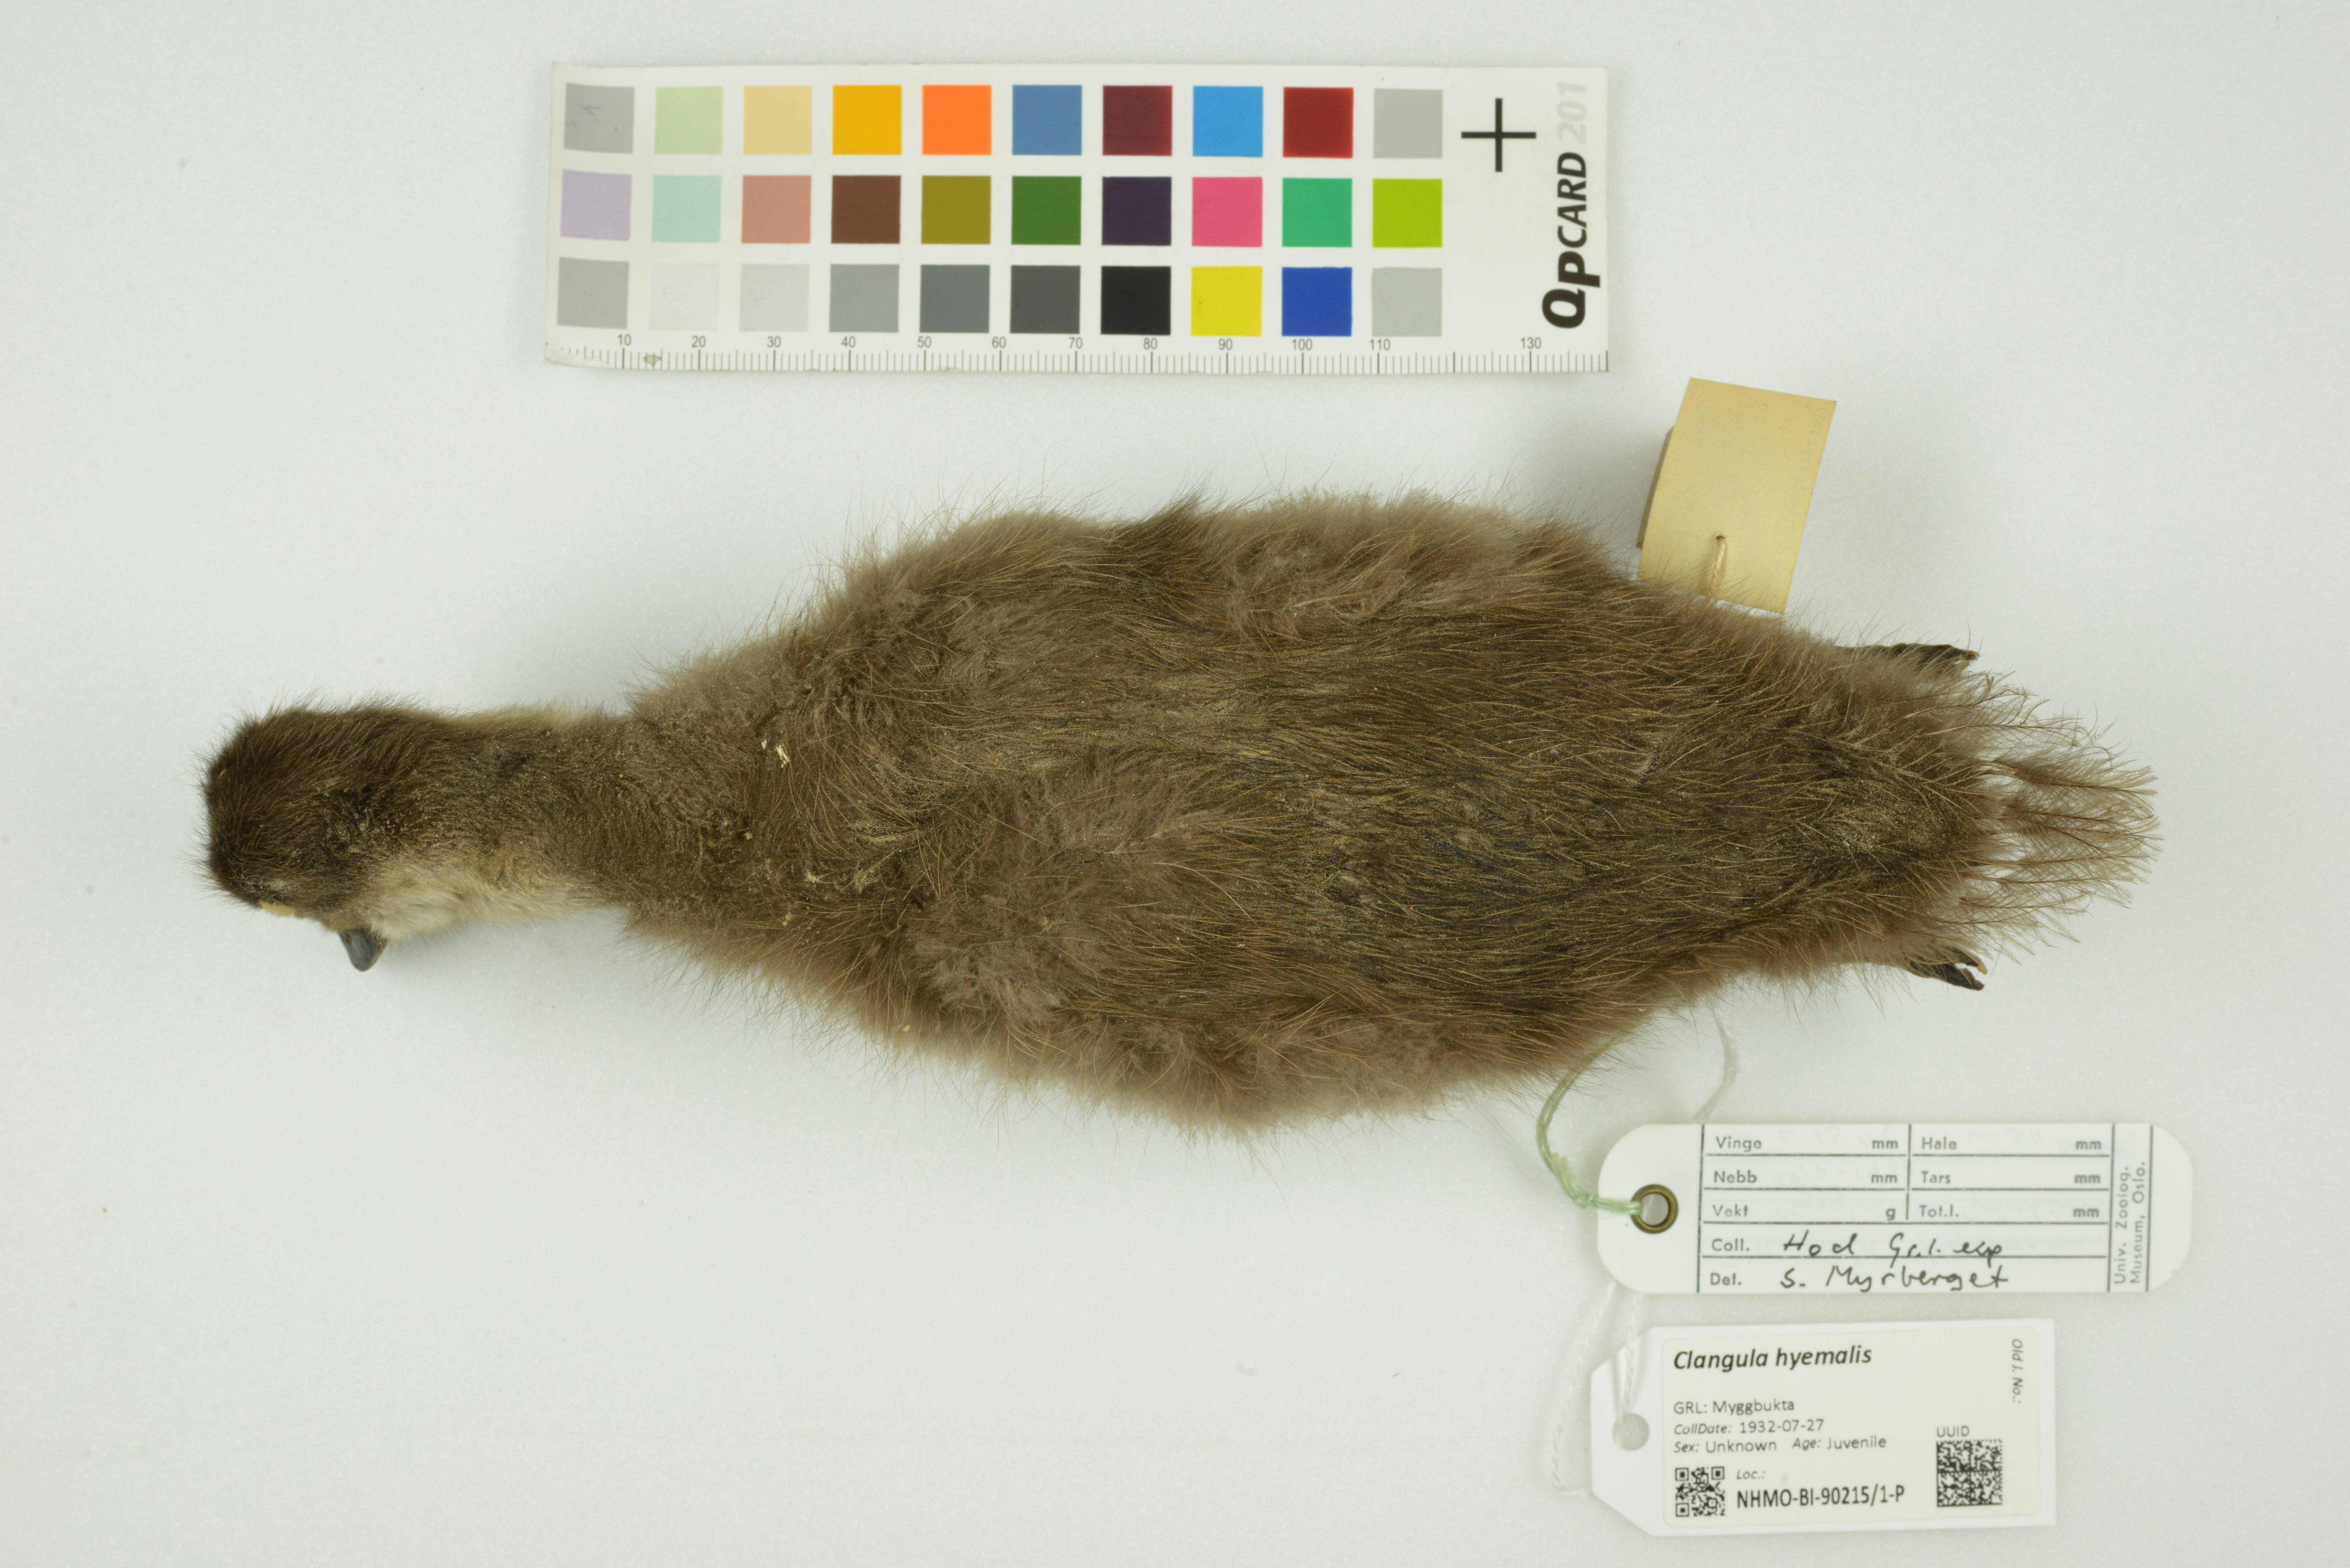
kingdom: Animalia
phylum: Chordata
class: Aves
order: Anseriformes
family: Anatidae
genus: Clangula
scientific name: Clangula hyemalis
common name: Long-tailed duck
